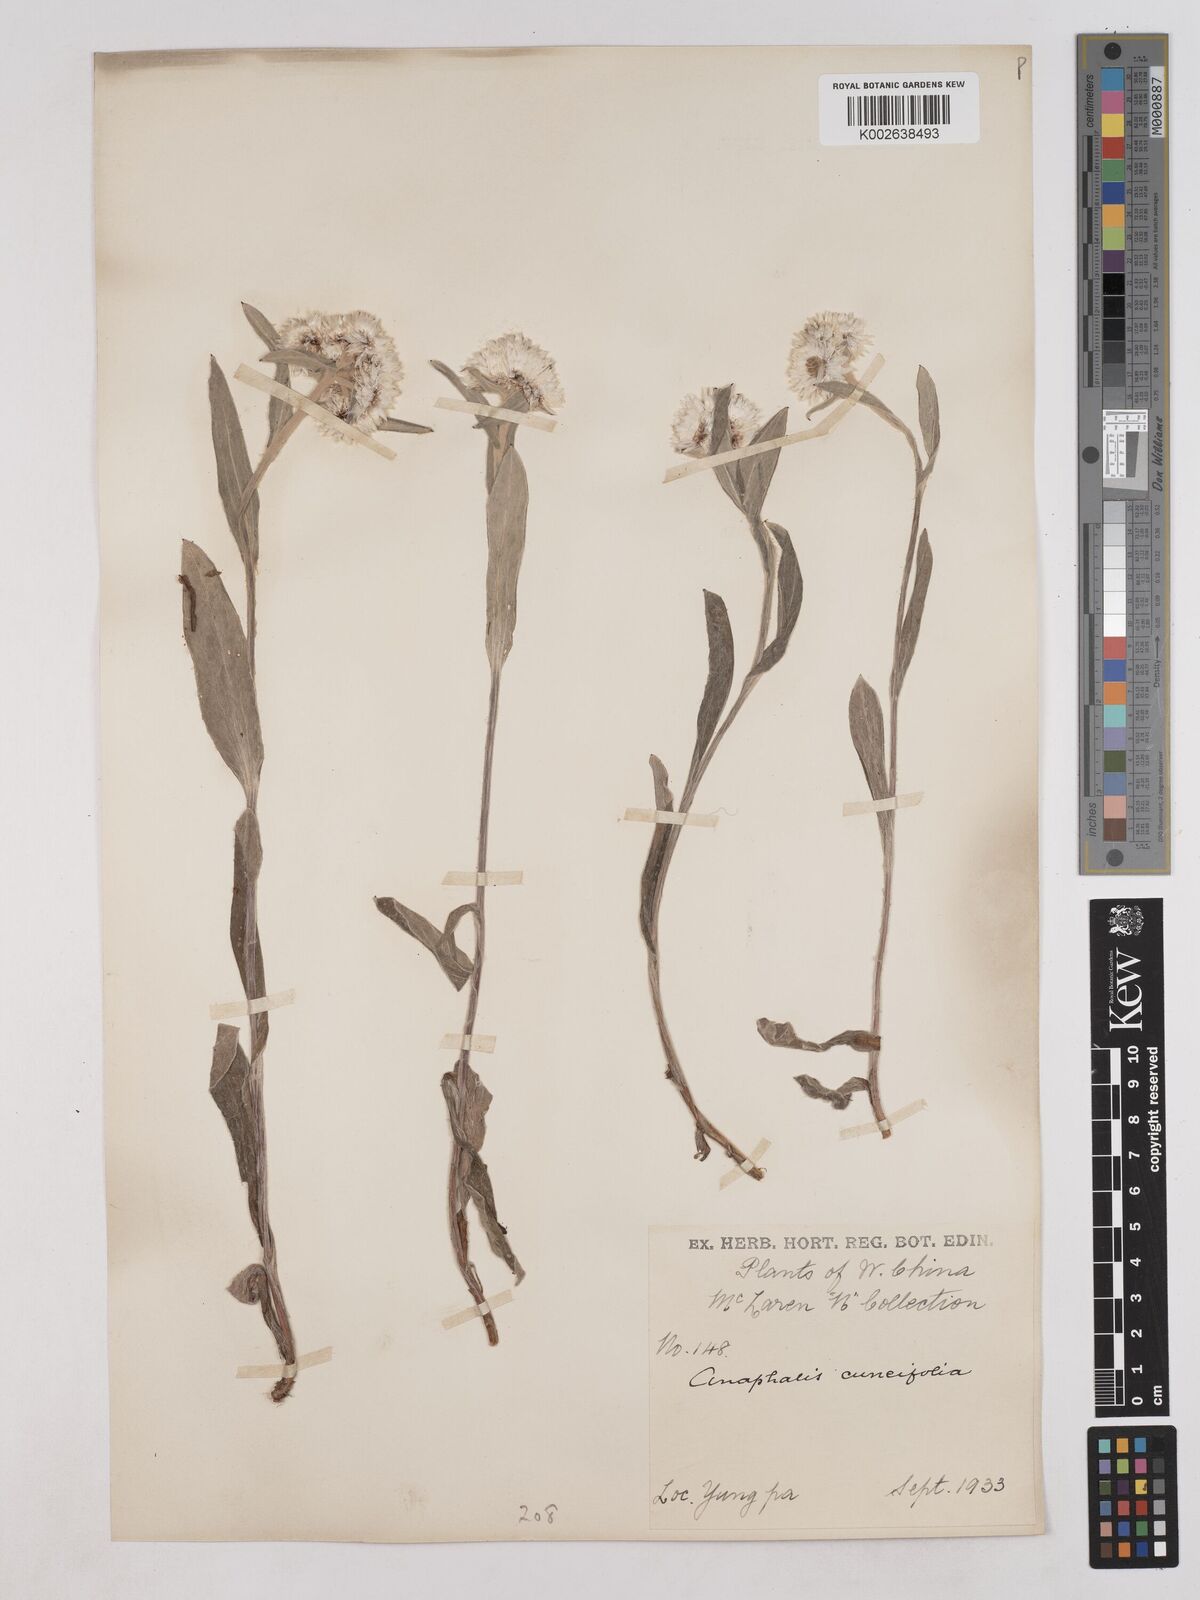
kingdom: Plantae
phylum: Tracheophyta
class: Magnoliopsida
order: Asterales
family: Asteraceae
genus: Anaphalis
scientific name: Anaphalis nepalensis
